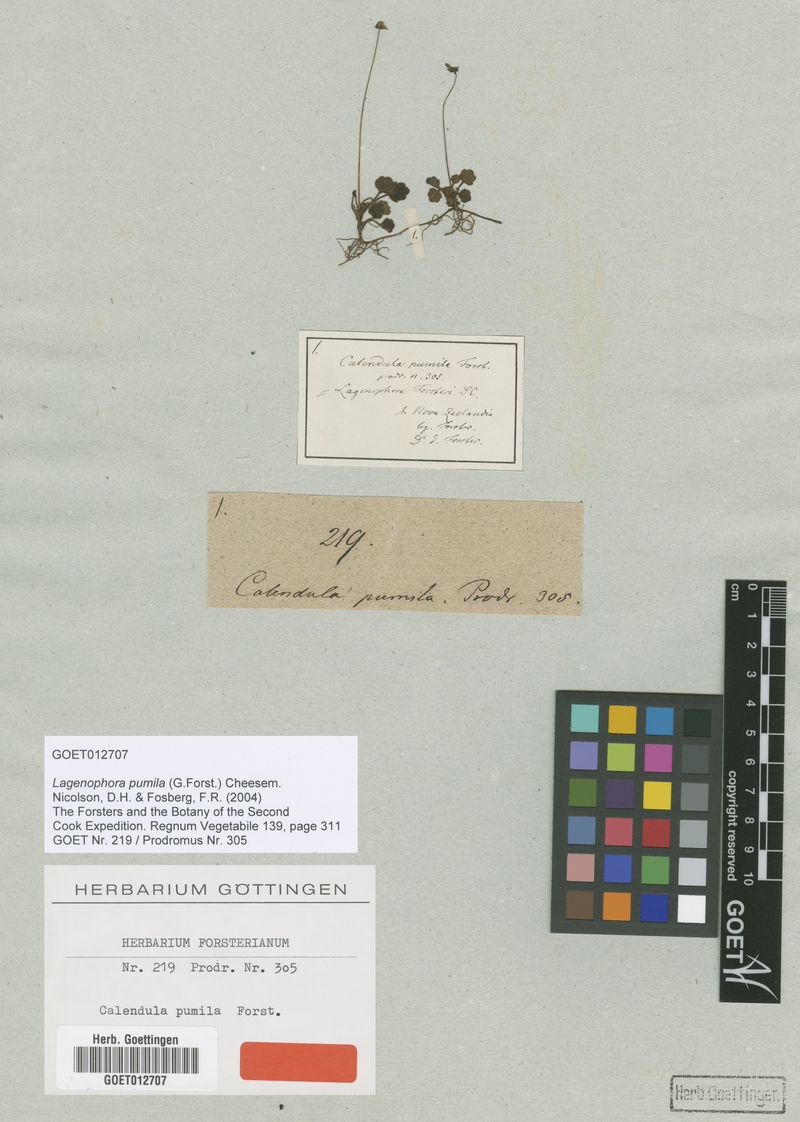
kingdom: Plantae
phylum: Tracheophyta
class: Magnoliopsida
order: Asterales
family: Asteraceae
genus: Lagenophora
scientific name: Lagenophora pumila
